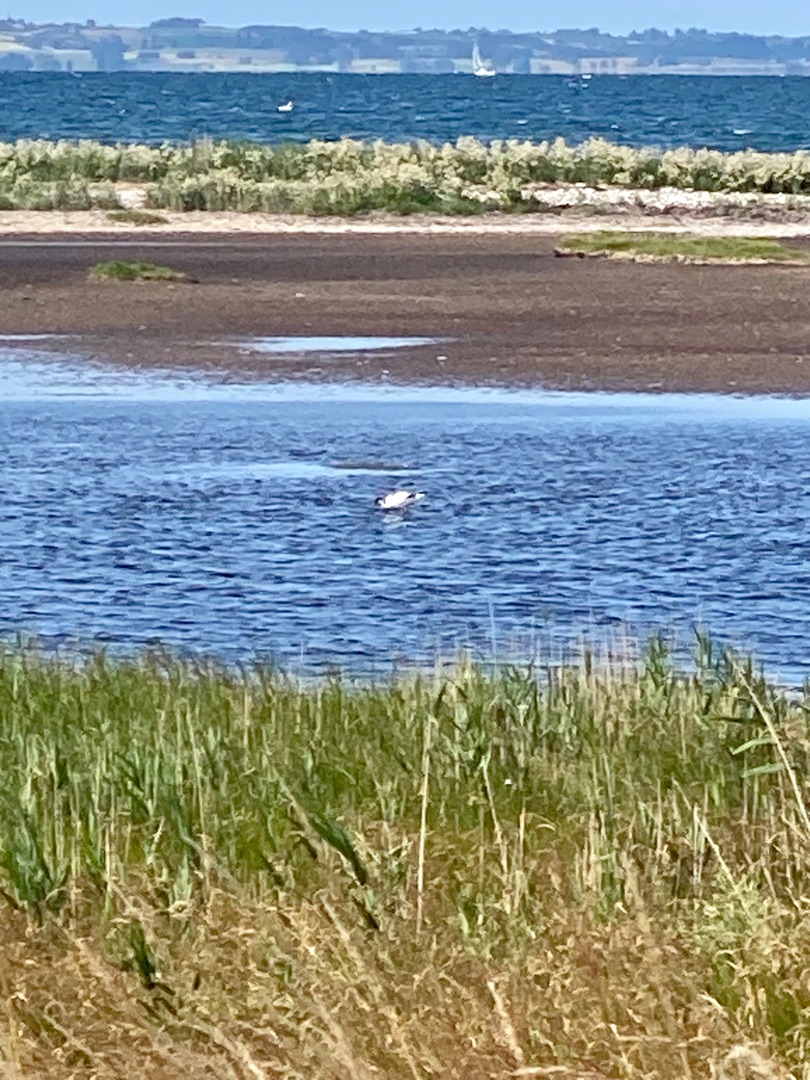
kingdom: Animalia
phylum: Chordata
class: Aves
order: Charadriiformes
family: Recurvirostridae
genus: Recurvirostra
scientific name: Recurvirostra avosetta
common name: Klyde
